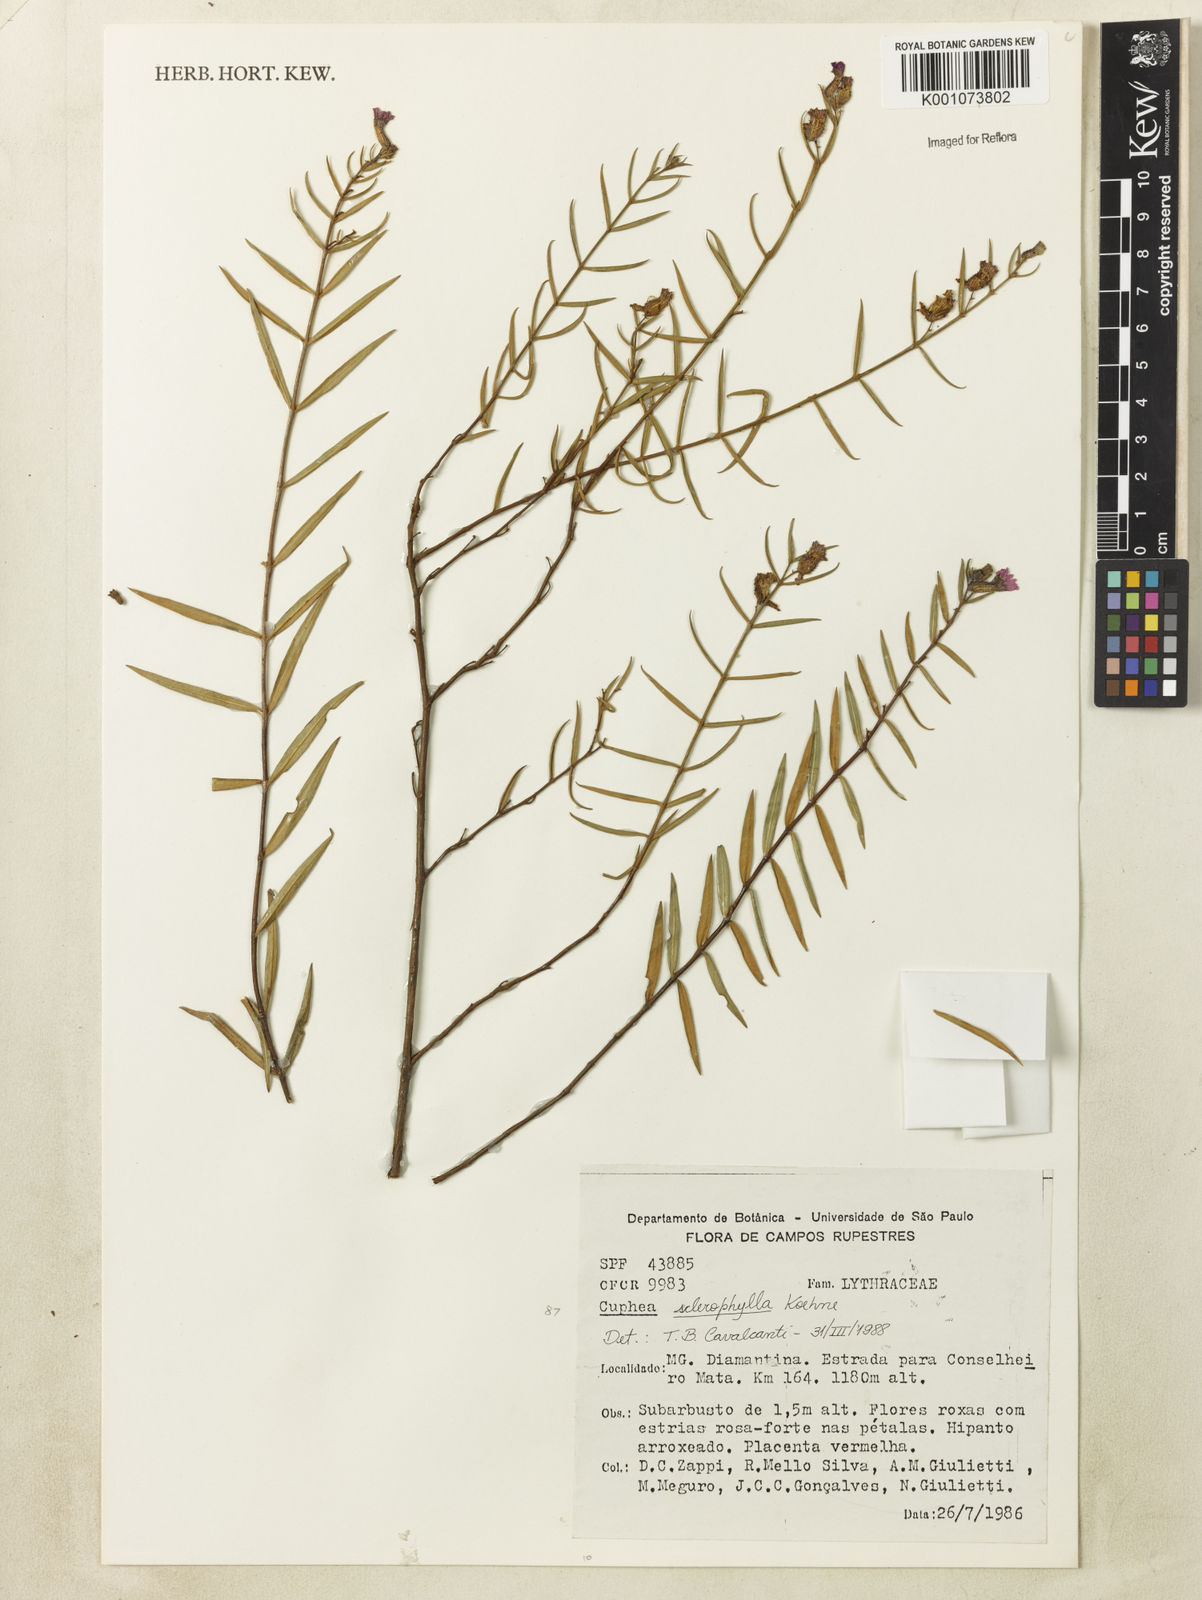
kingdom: Plantae
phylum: Tracheophyta
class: Magnoliopsida
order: Myrtales
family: Lythraceae
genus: Cuphea
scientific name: Cuphea sclerophylla
